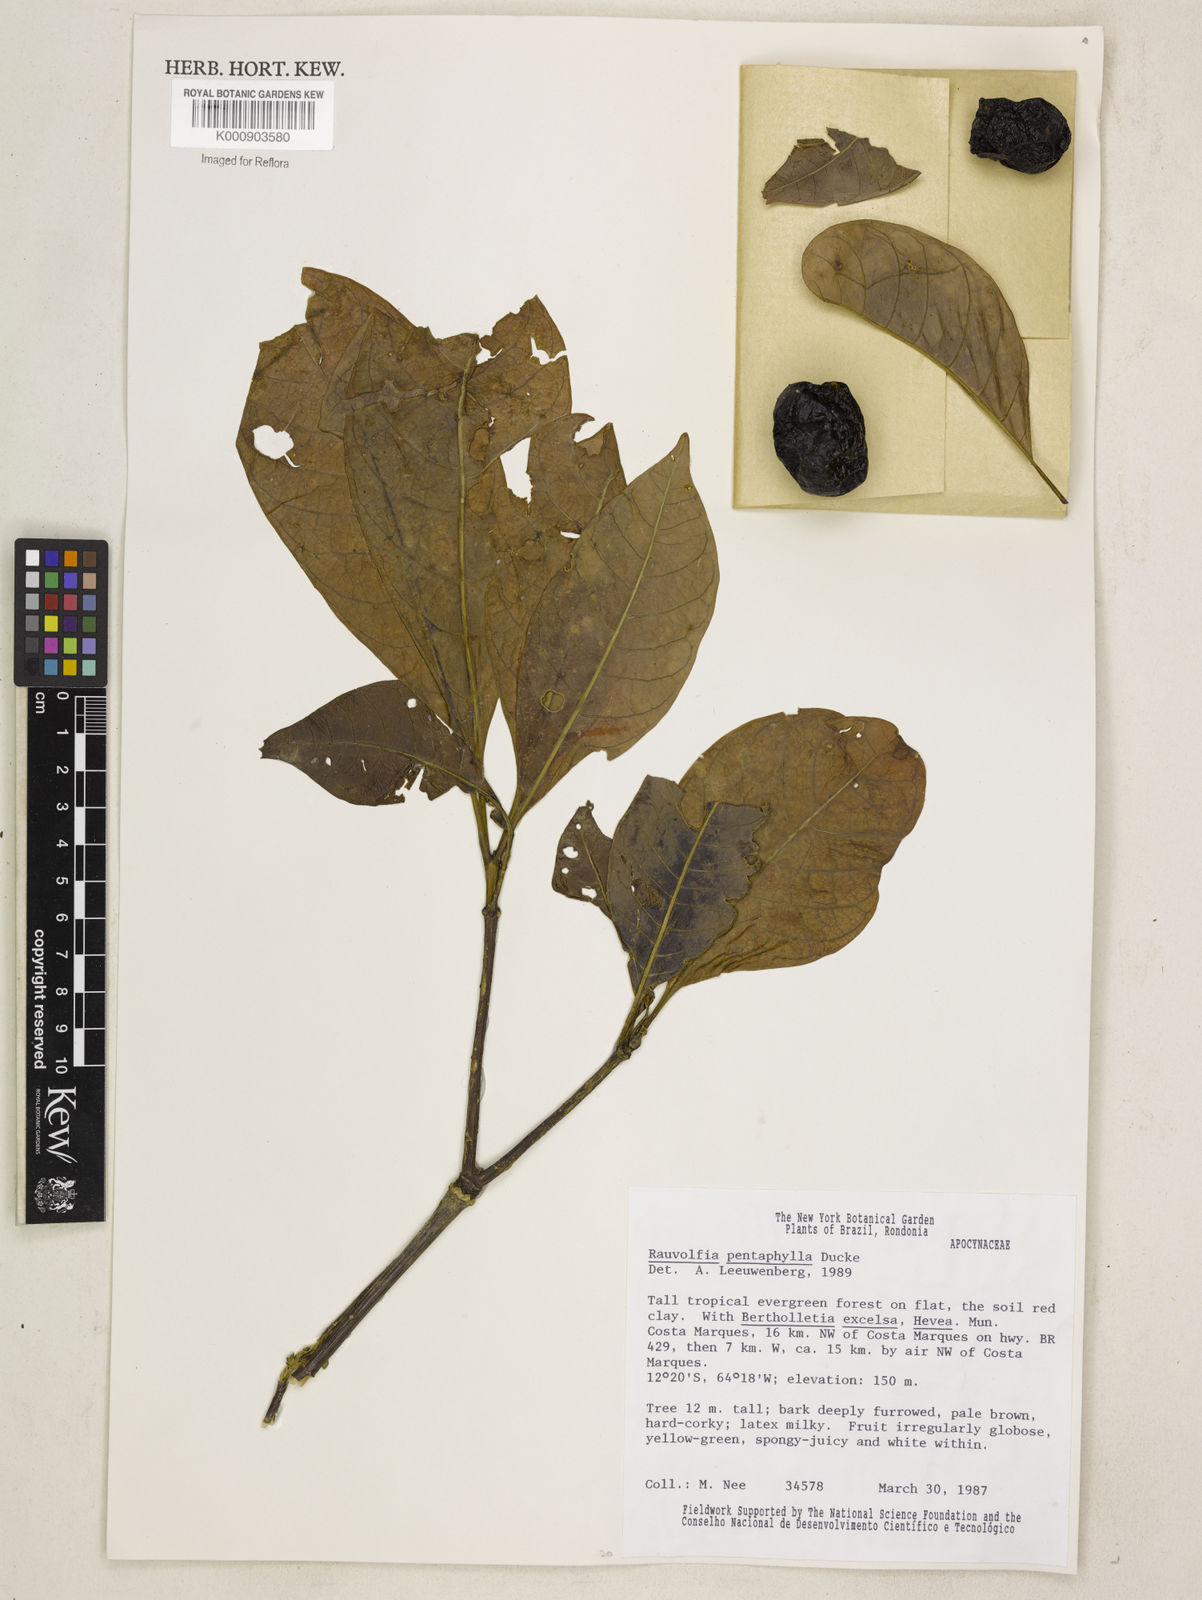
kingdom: Plantae
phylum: Tracheophyta
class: Magnoliopsida
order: Gentianales
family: Apocynaceae
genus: Rauvolfia
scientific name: Rauvolfia pentaphylla
